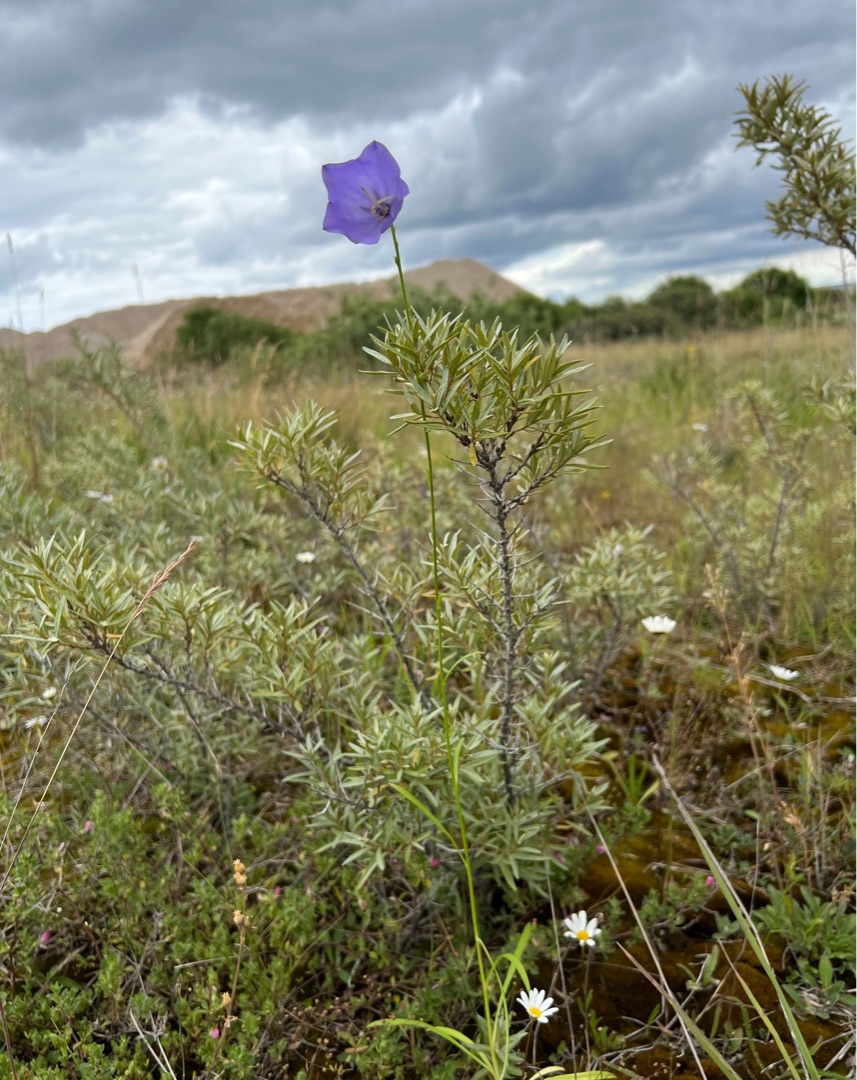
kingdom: Plantae
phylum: Tracheophyta
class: Magnoliopsida
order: Asterales
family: Campanulaceae
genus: Campanula
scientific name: Campanula persicifolia
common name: Smalbladet klokke
